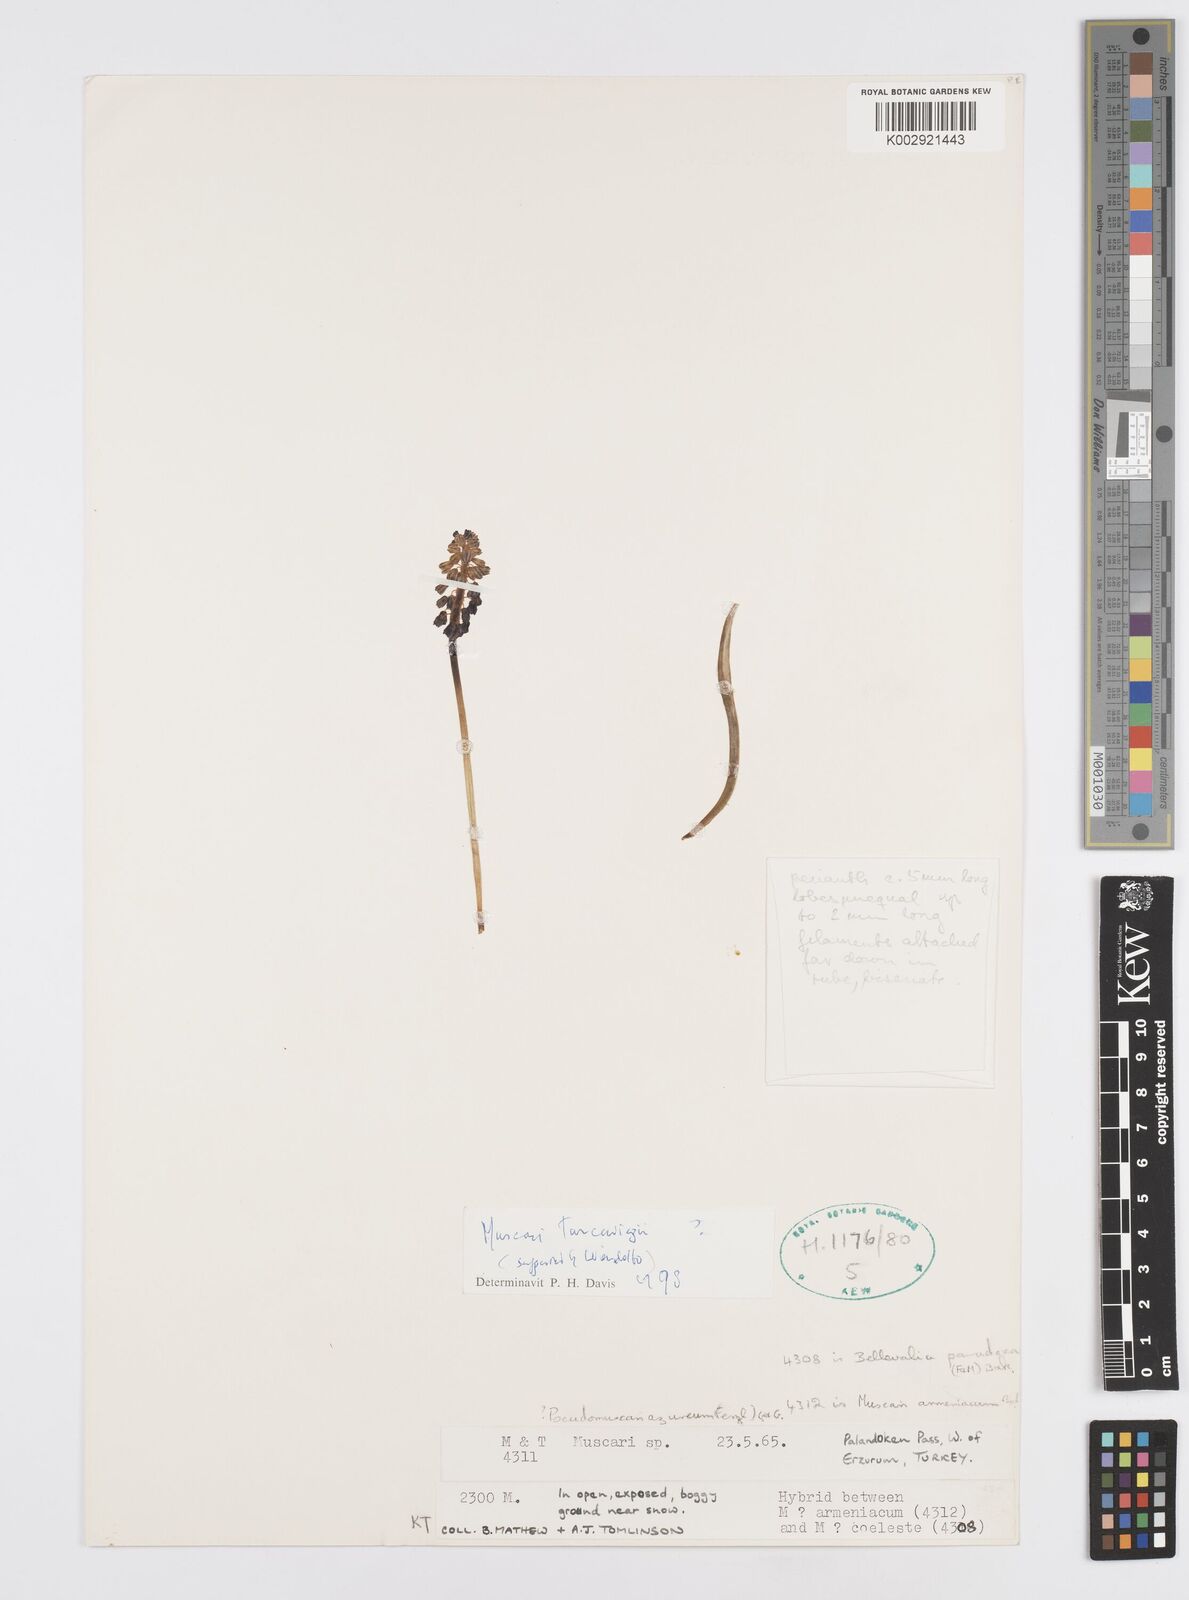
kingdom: Plantae
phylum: Tracheophyta
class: Liliopsida
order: Asparagales
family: Asparagaceae
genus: Muscari
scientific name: Muscari coeleste
